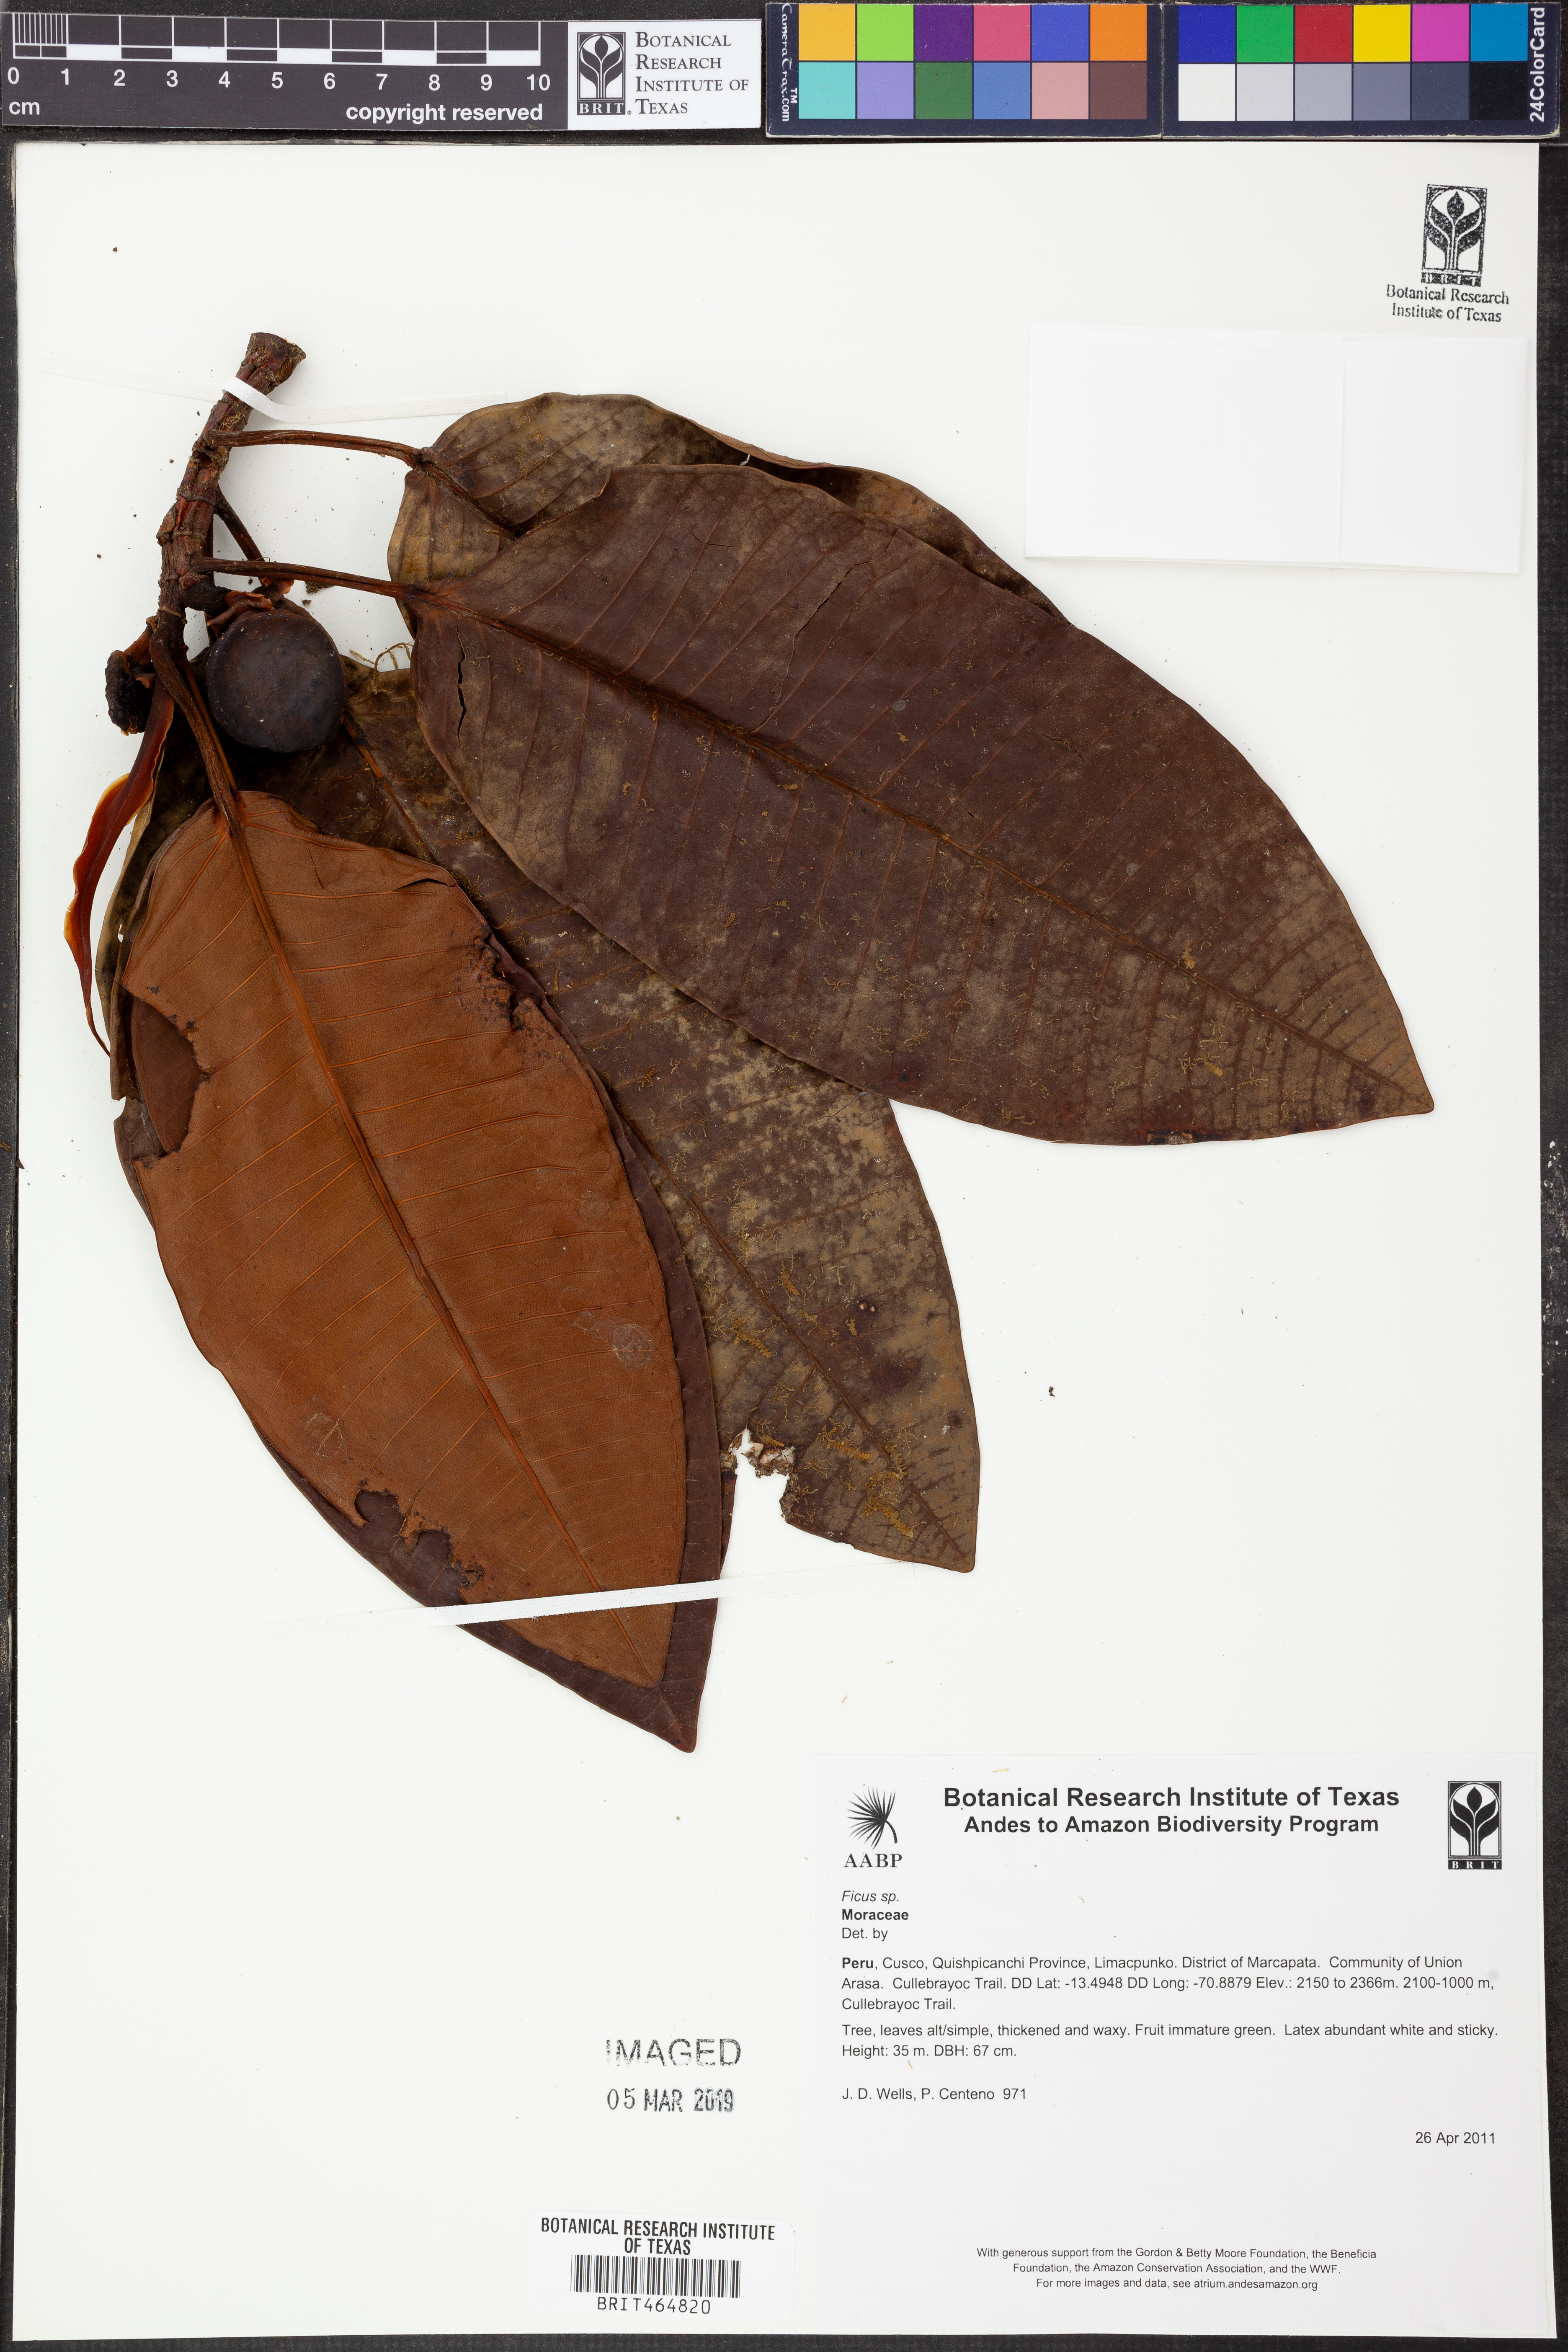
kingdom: Plantae
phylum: Tracheophyta
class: Magnoliopsida
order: Rosales
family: Moraceae
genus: Ficus
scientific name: Ficus
